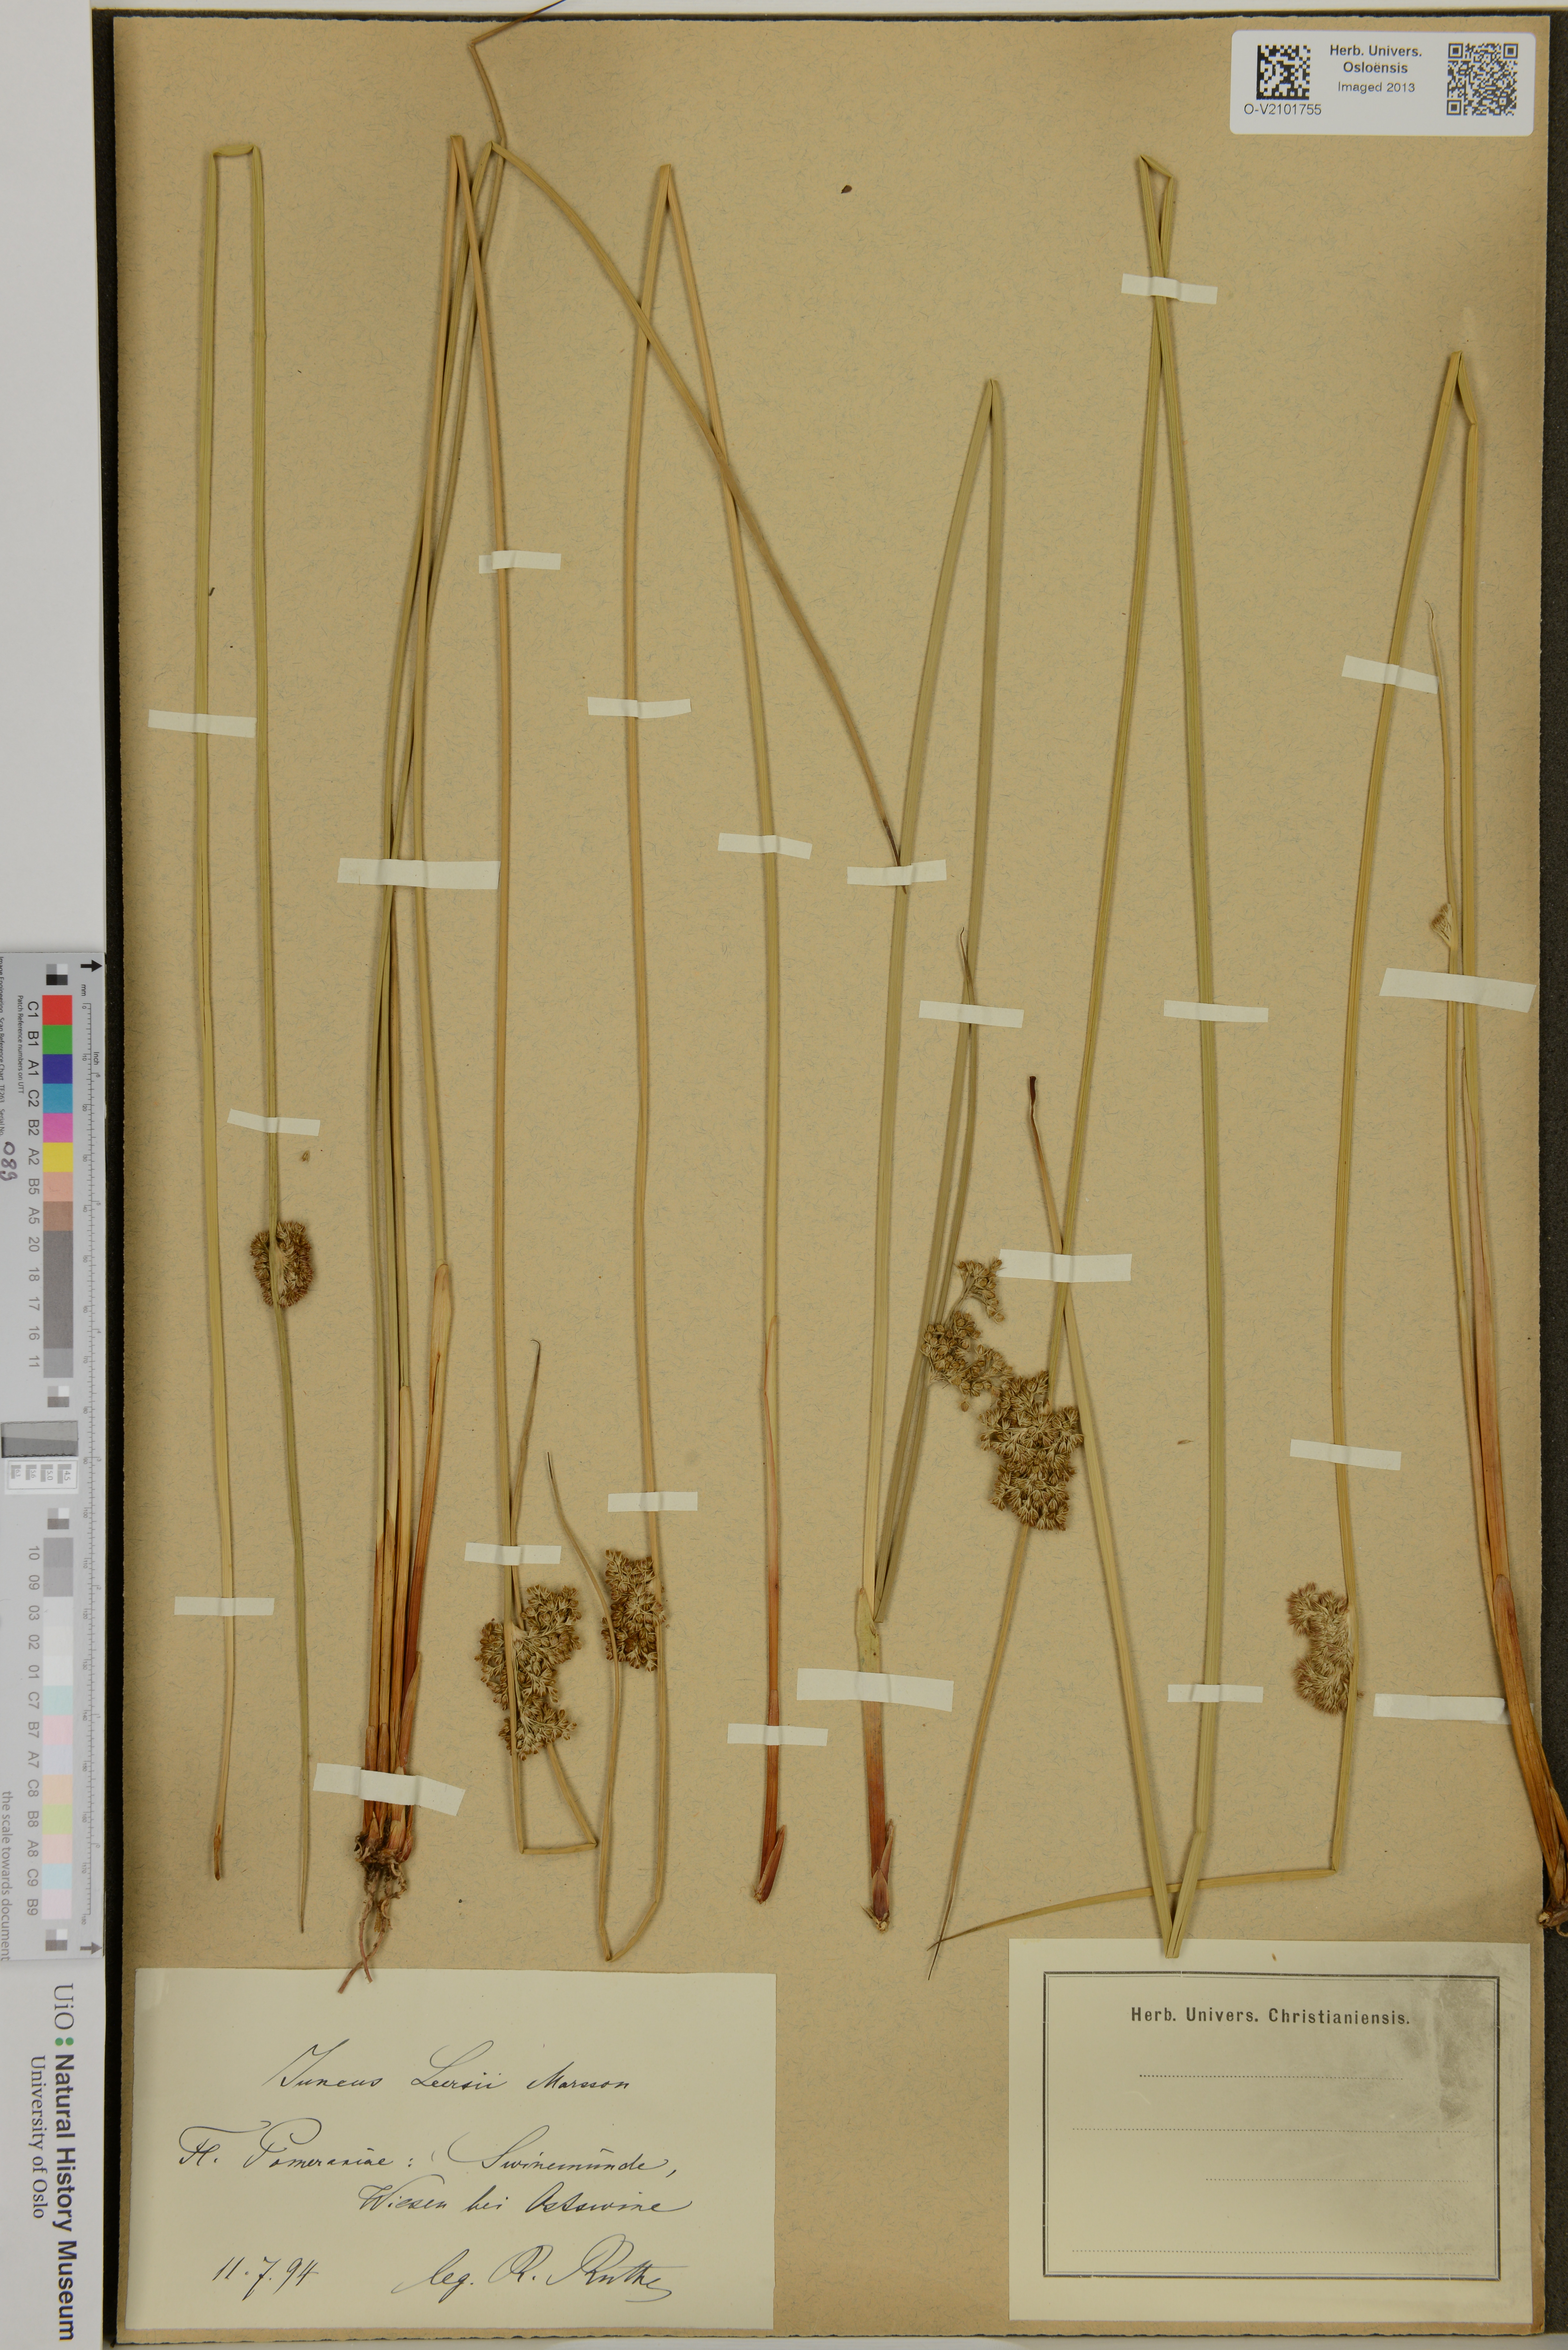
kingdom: Plantae
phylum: Tracheophyta
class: Liliopsida
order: Poales
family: Juncaceae
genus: Juncus
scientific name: Juncus conglomeratus
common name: Compact rush
